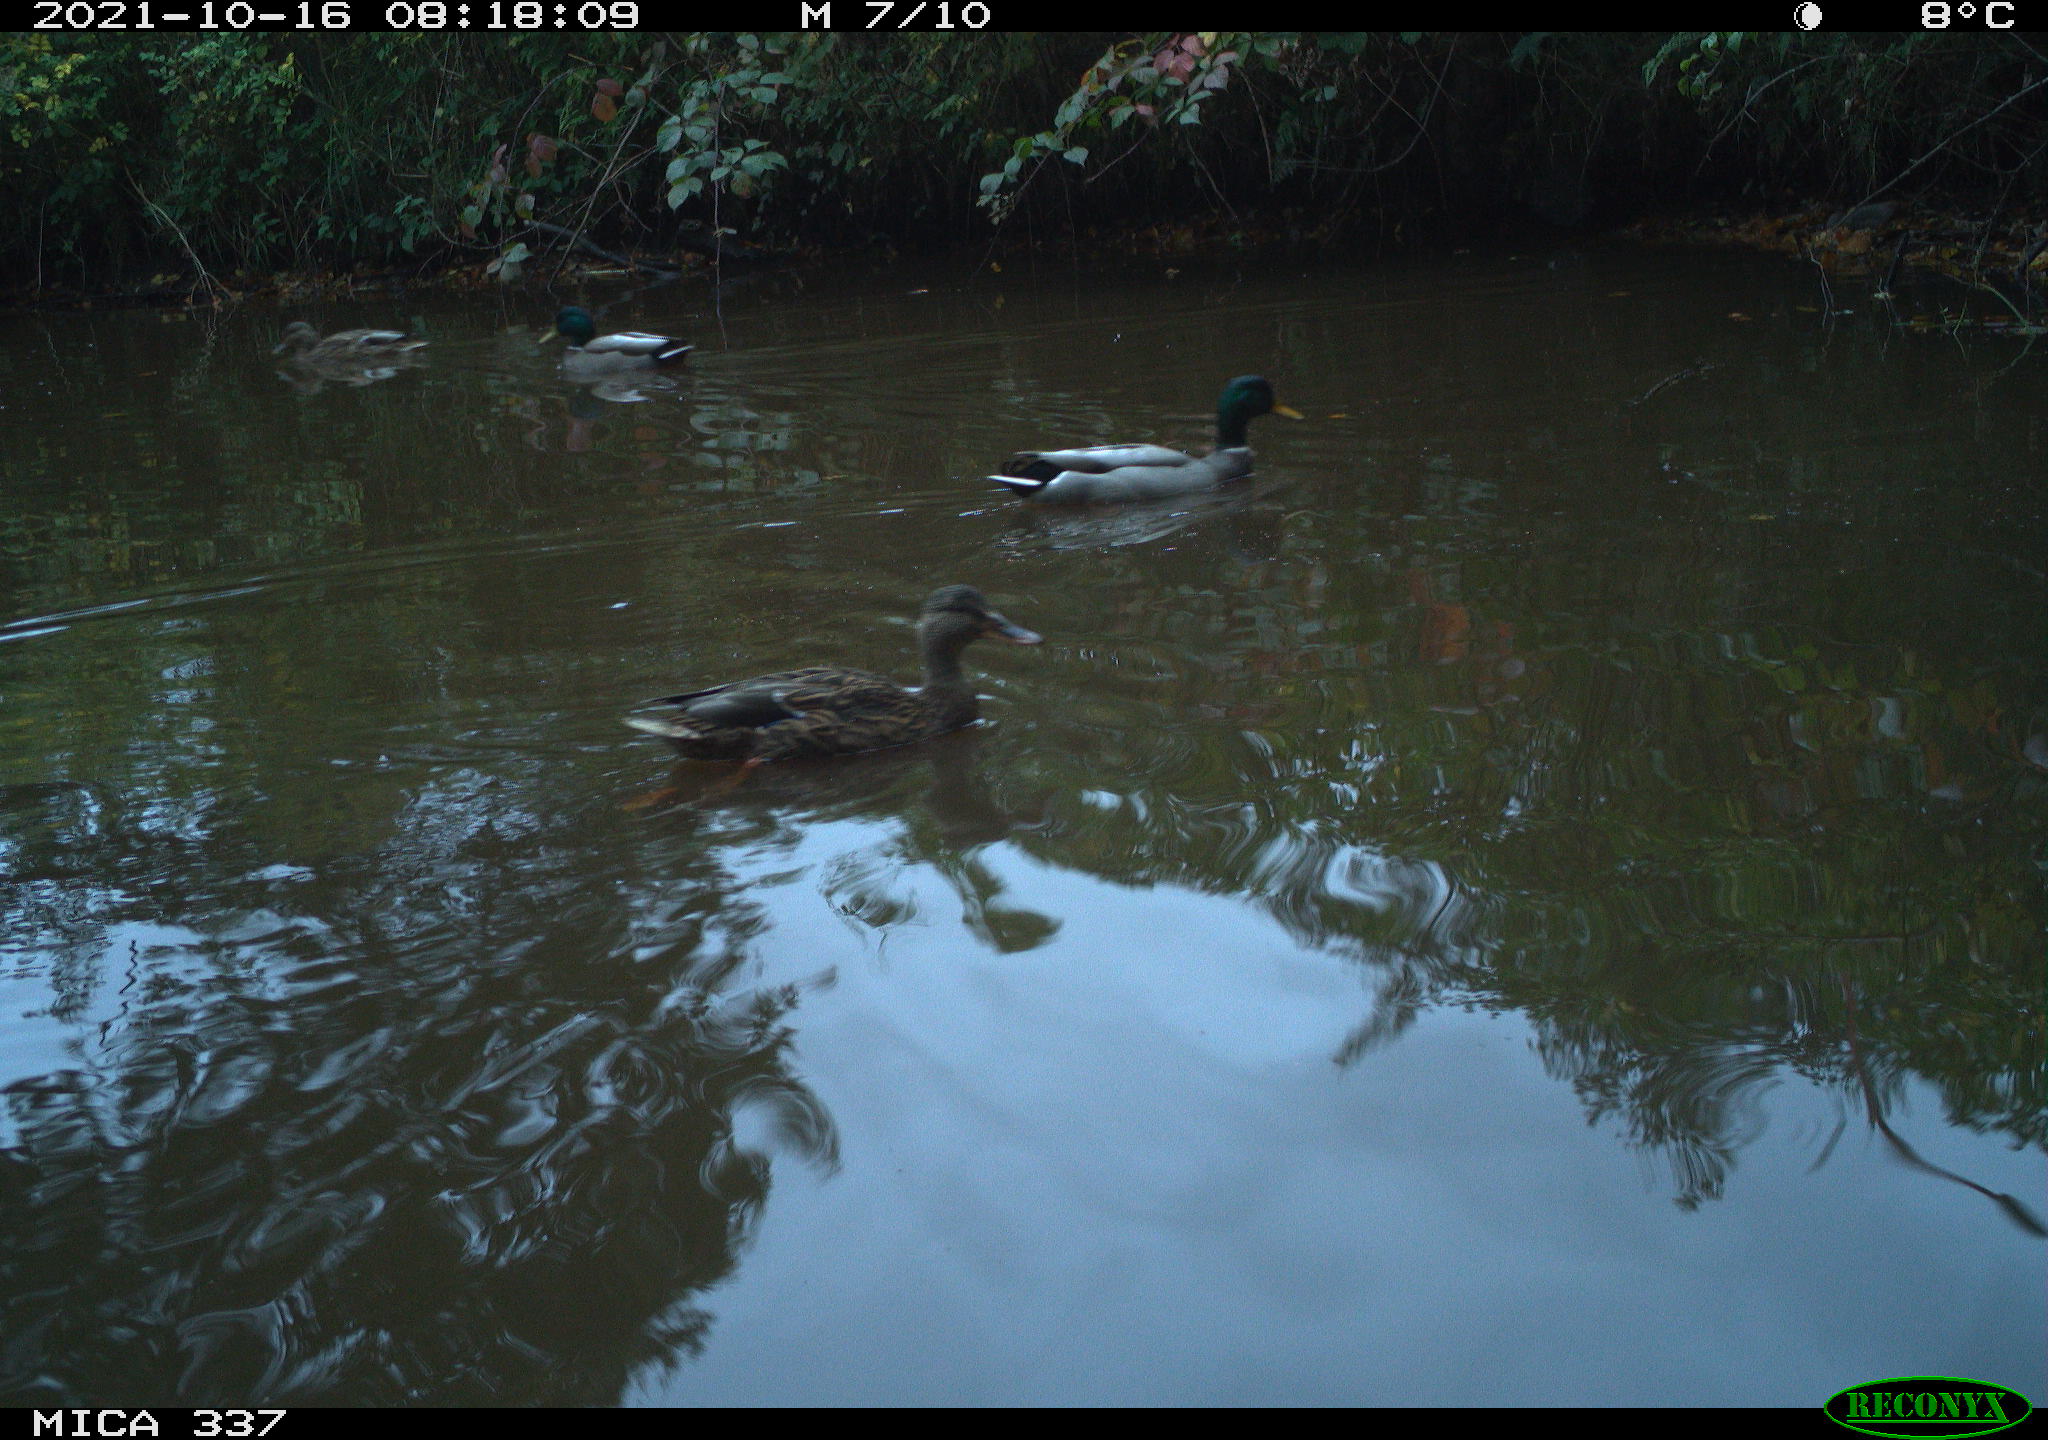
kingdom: Animalia
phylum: Chordata
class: Aves
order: Anseriformes
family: Anatidae
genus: Anas
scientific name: Anas platyrhynchos
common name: Mallard
